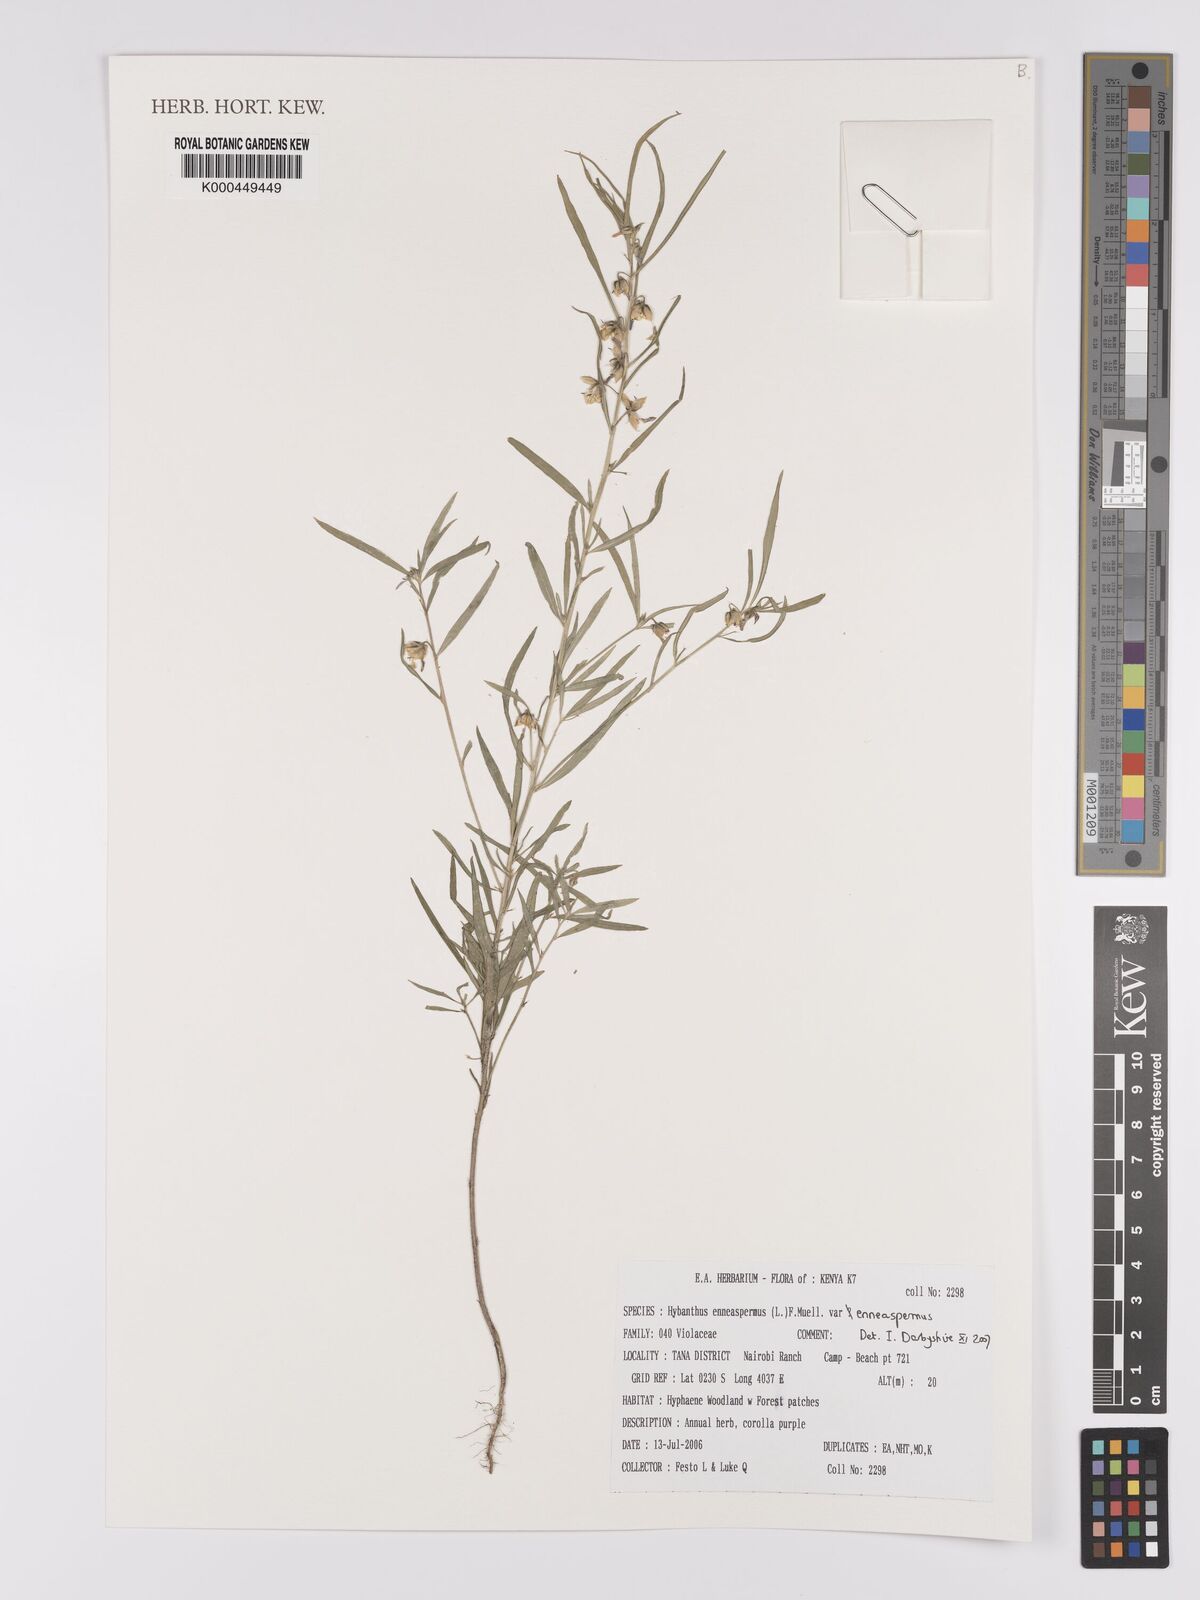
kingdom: Plantae
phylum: Tracheophyta
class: Magnoliopsida
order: Malpighiales
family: Violaceae
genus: Hybanthus
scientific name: Hybanthus
